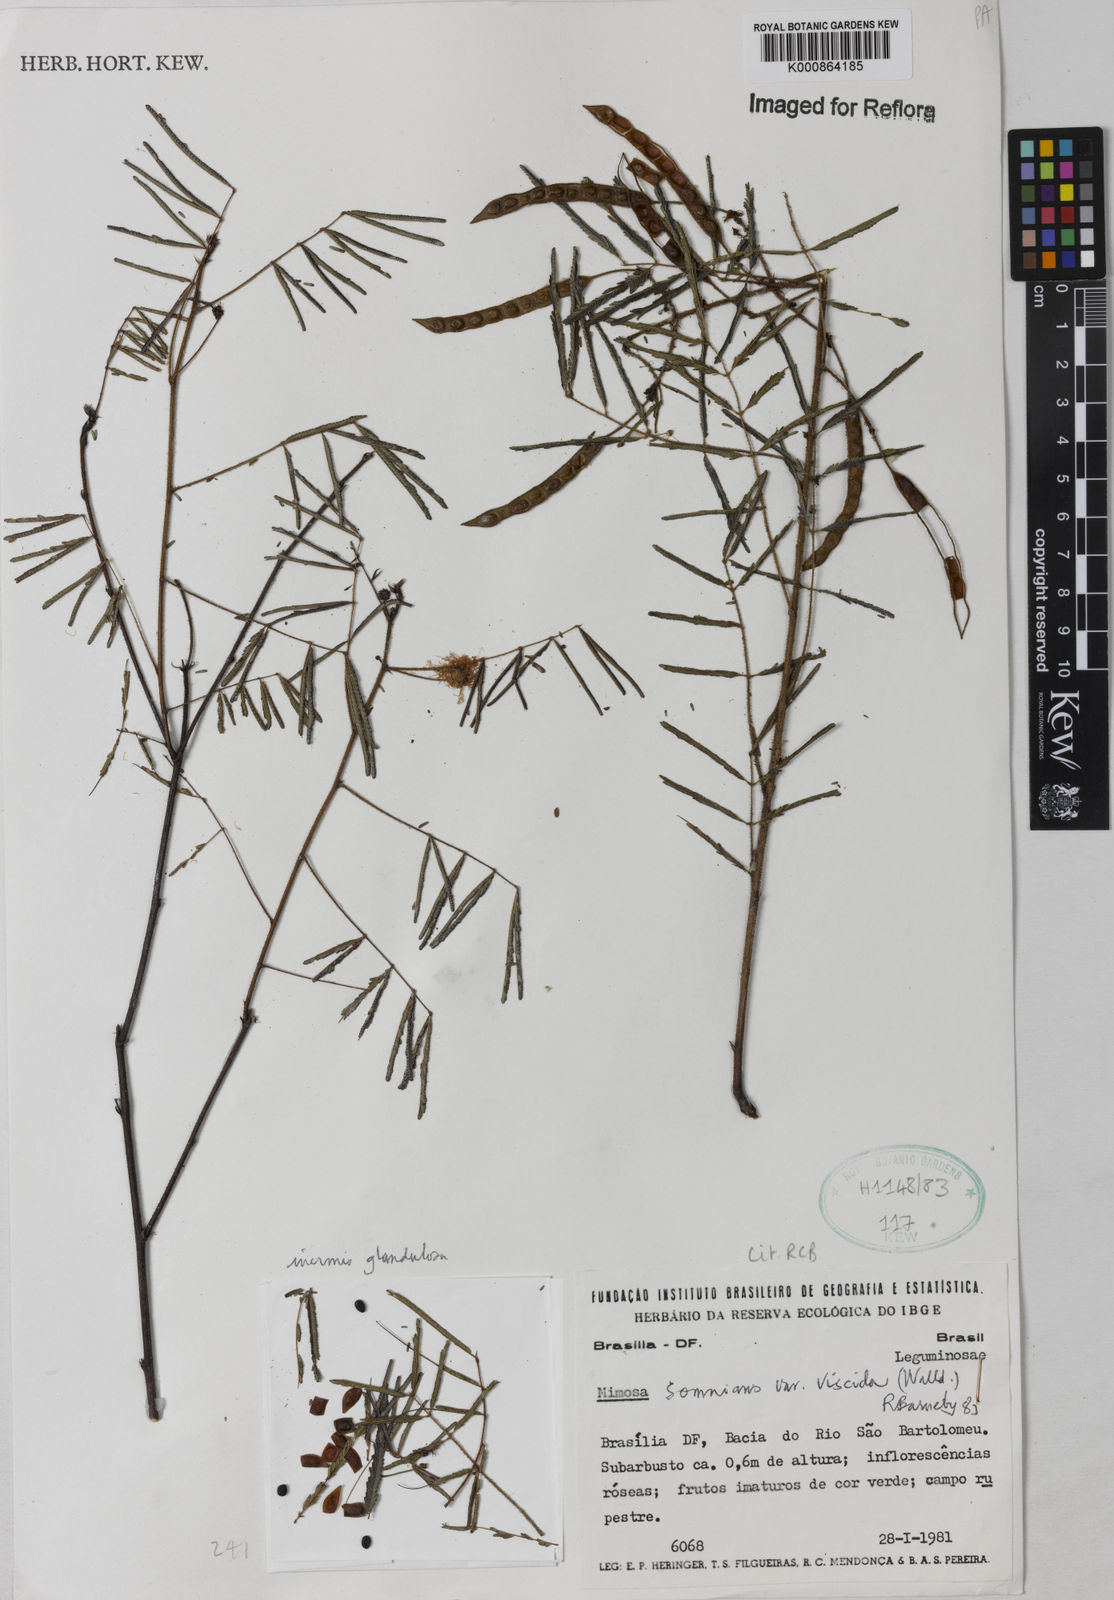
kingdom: Plantae
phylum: Tracheophyta
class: Magnoliopsida
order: Fabales
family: Fabaceae
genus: Mimosa
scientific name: Mimosa somnians
